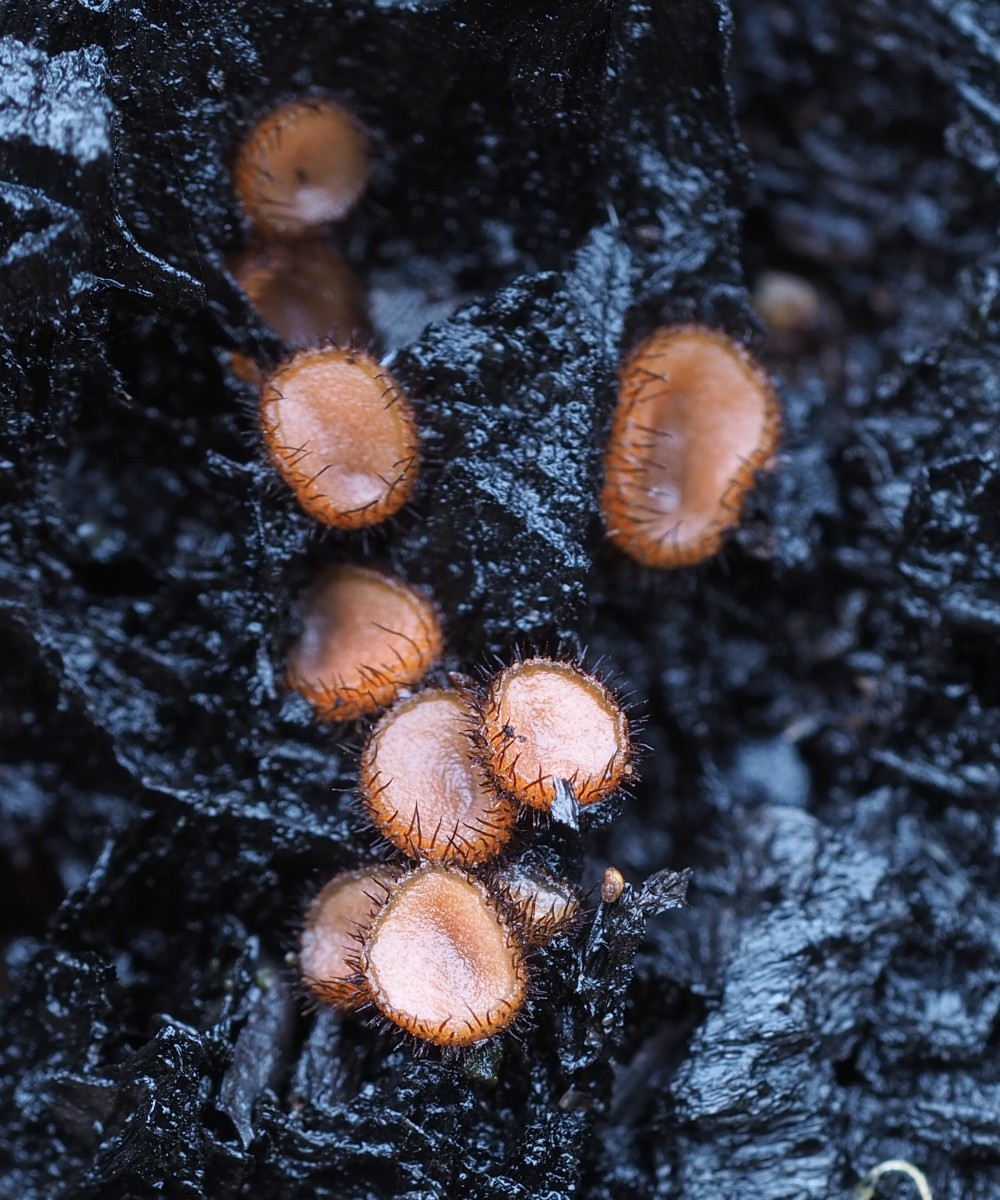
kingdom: Fungi
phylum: Ascomycota
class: Pezizomycetes
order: Pezizales
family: Pyronemataceae
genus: Scutellinia
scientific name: Scutellinia setosa
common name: pindsvine-skjoldbæger
